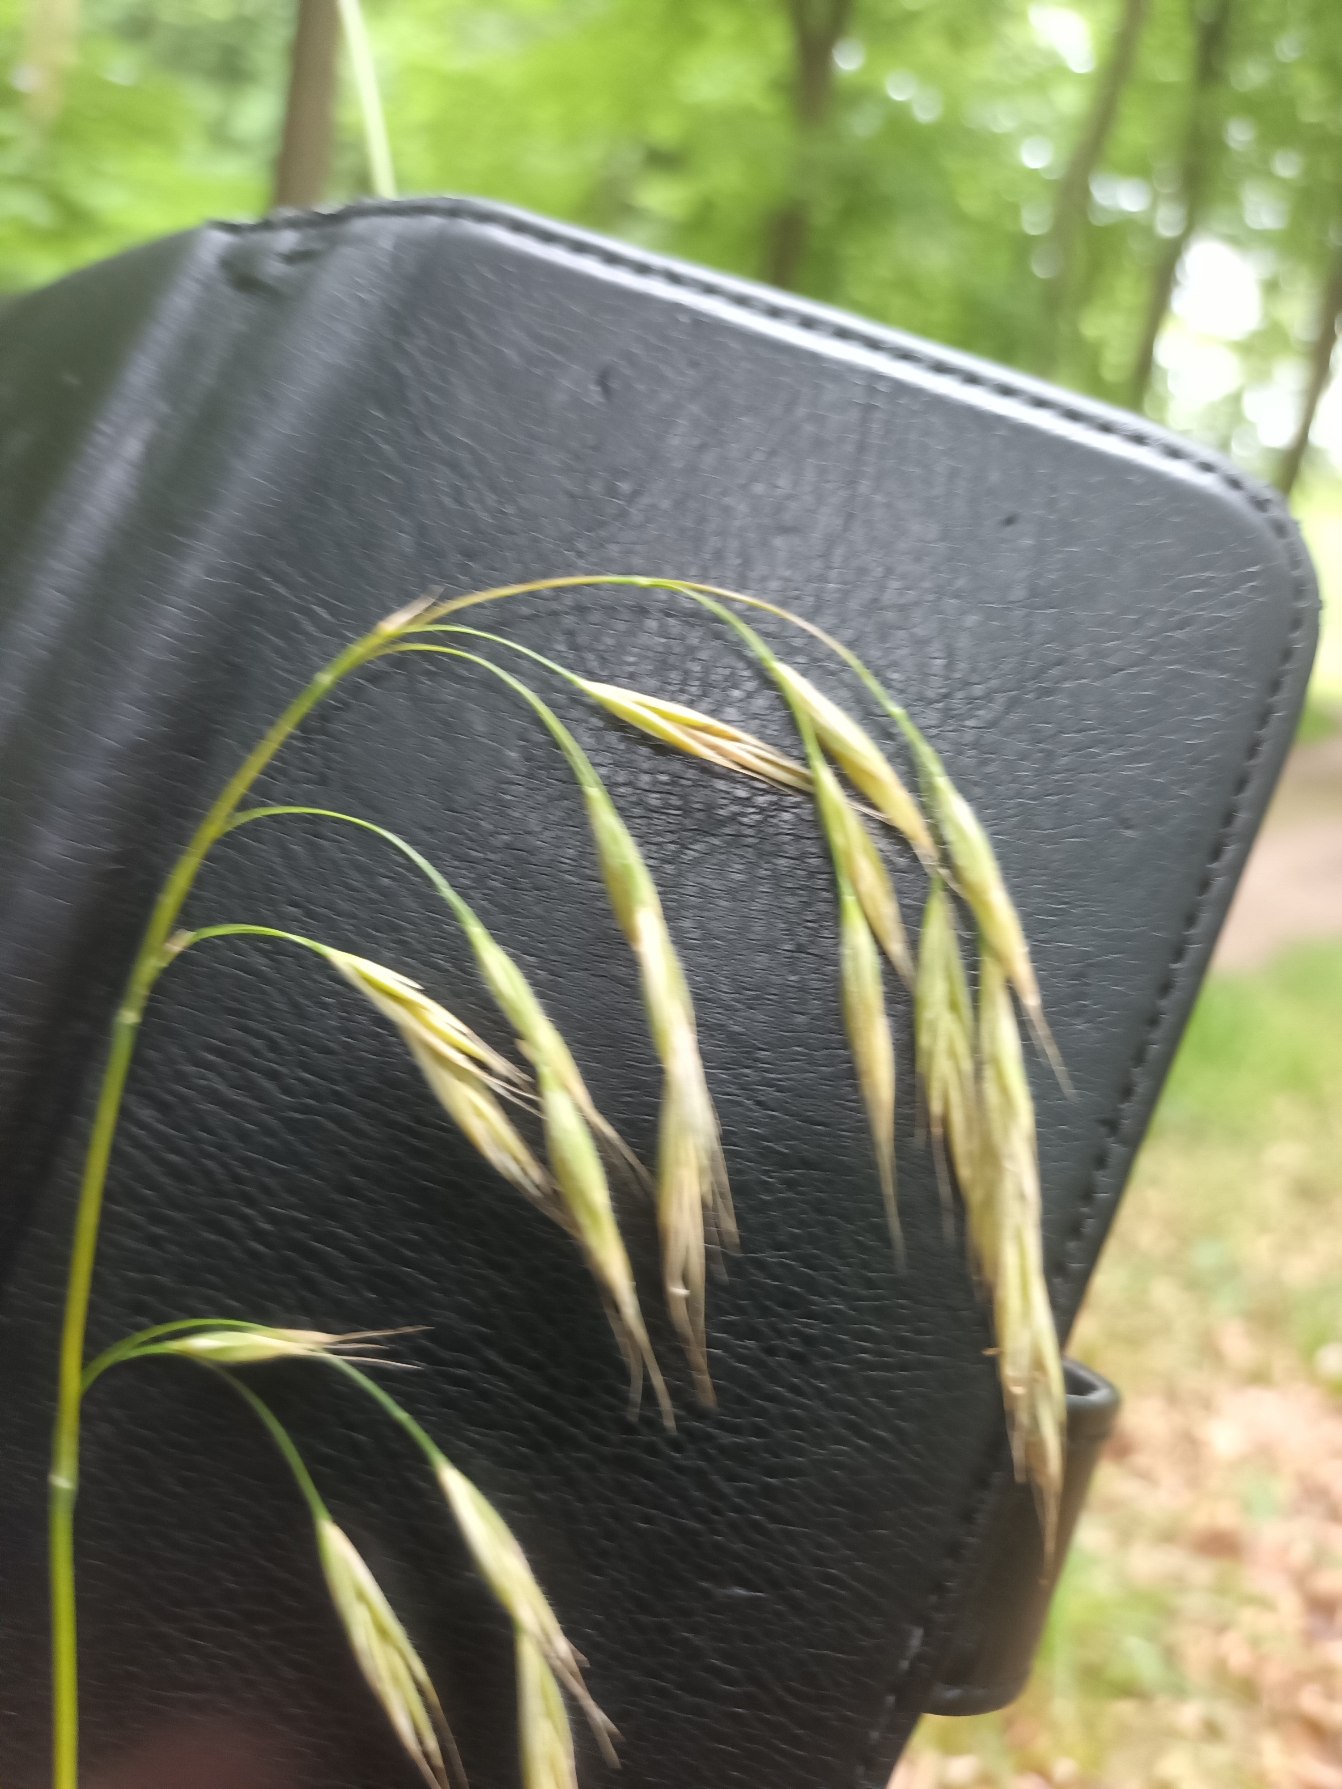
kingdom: Plantae
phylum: Tracheophyta
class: Liliopsida
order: Poales
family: Poaceae
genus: Bromus
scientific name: Bromus benekenii
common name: Tidlig skov-hejre
